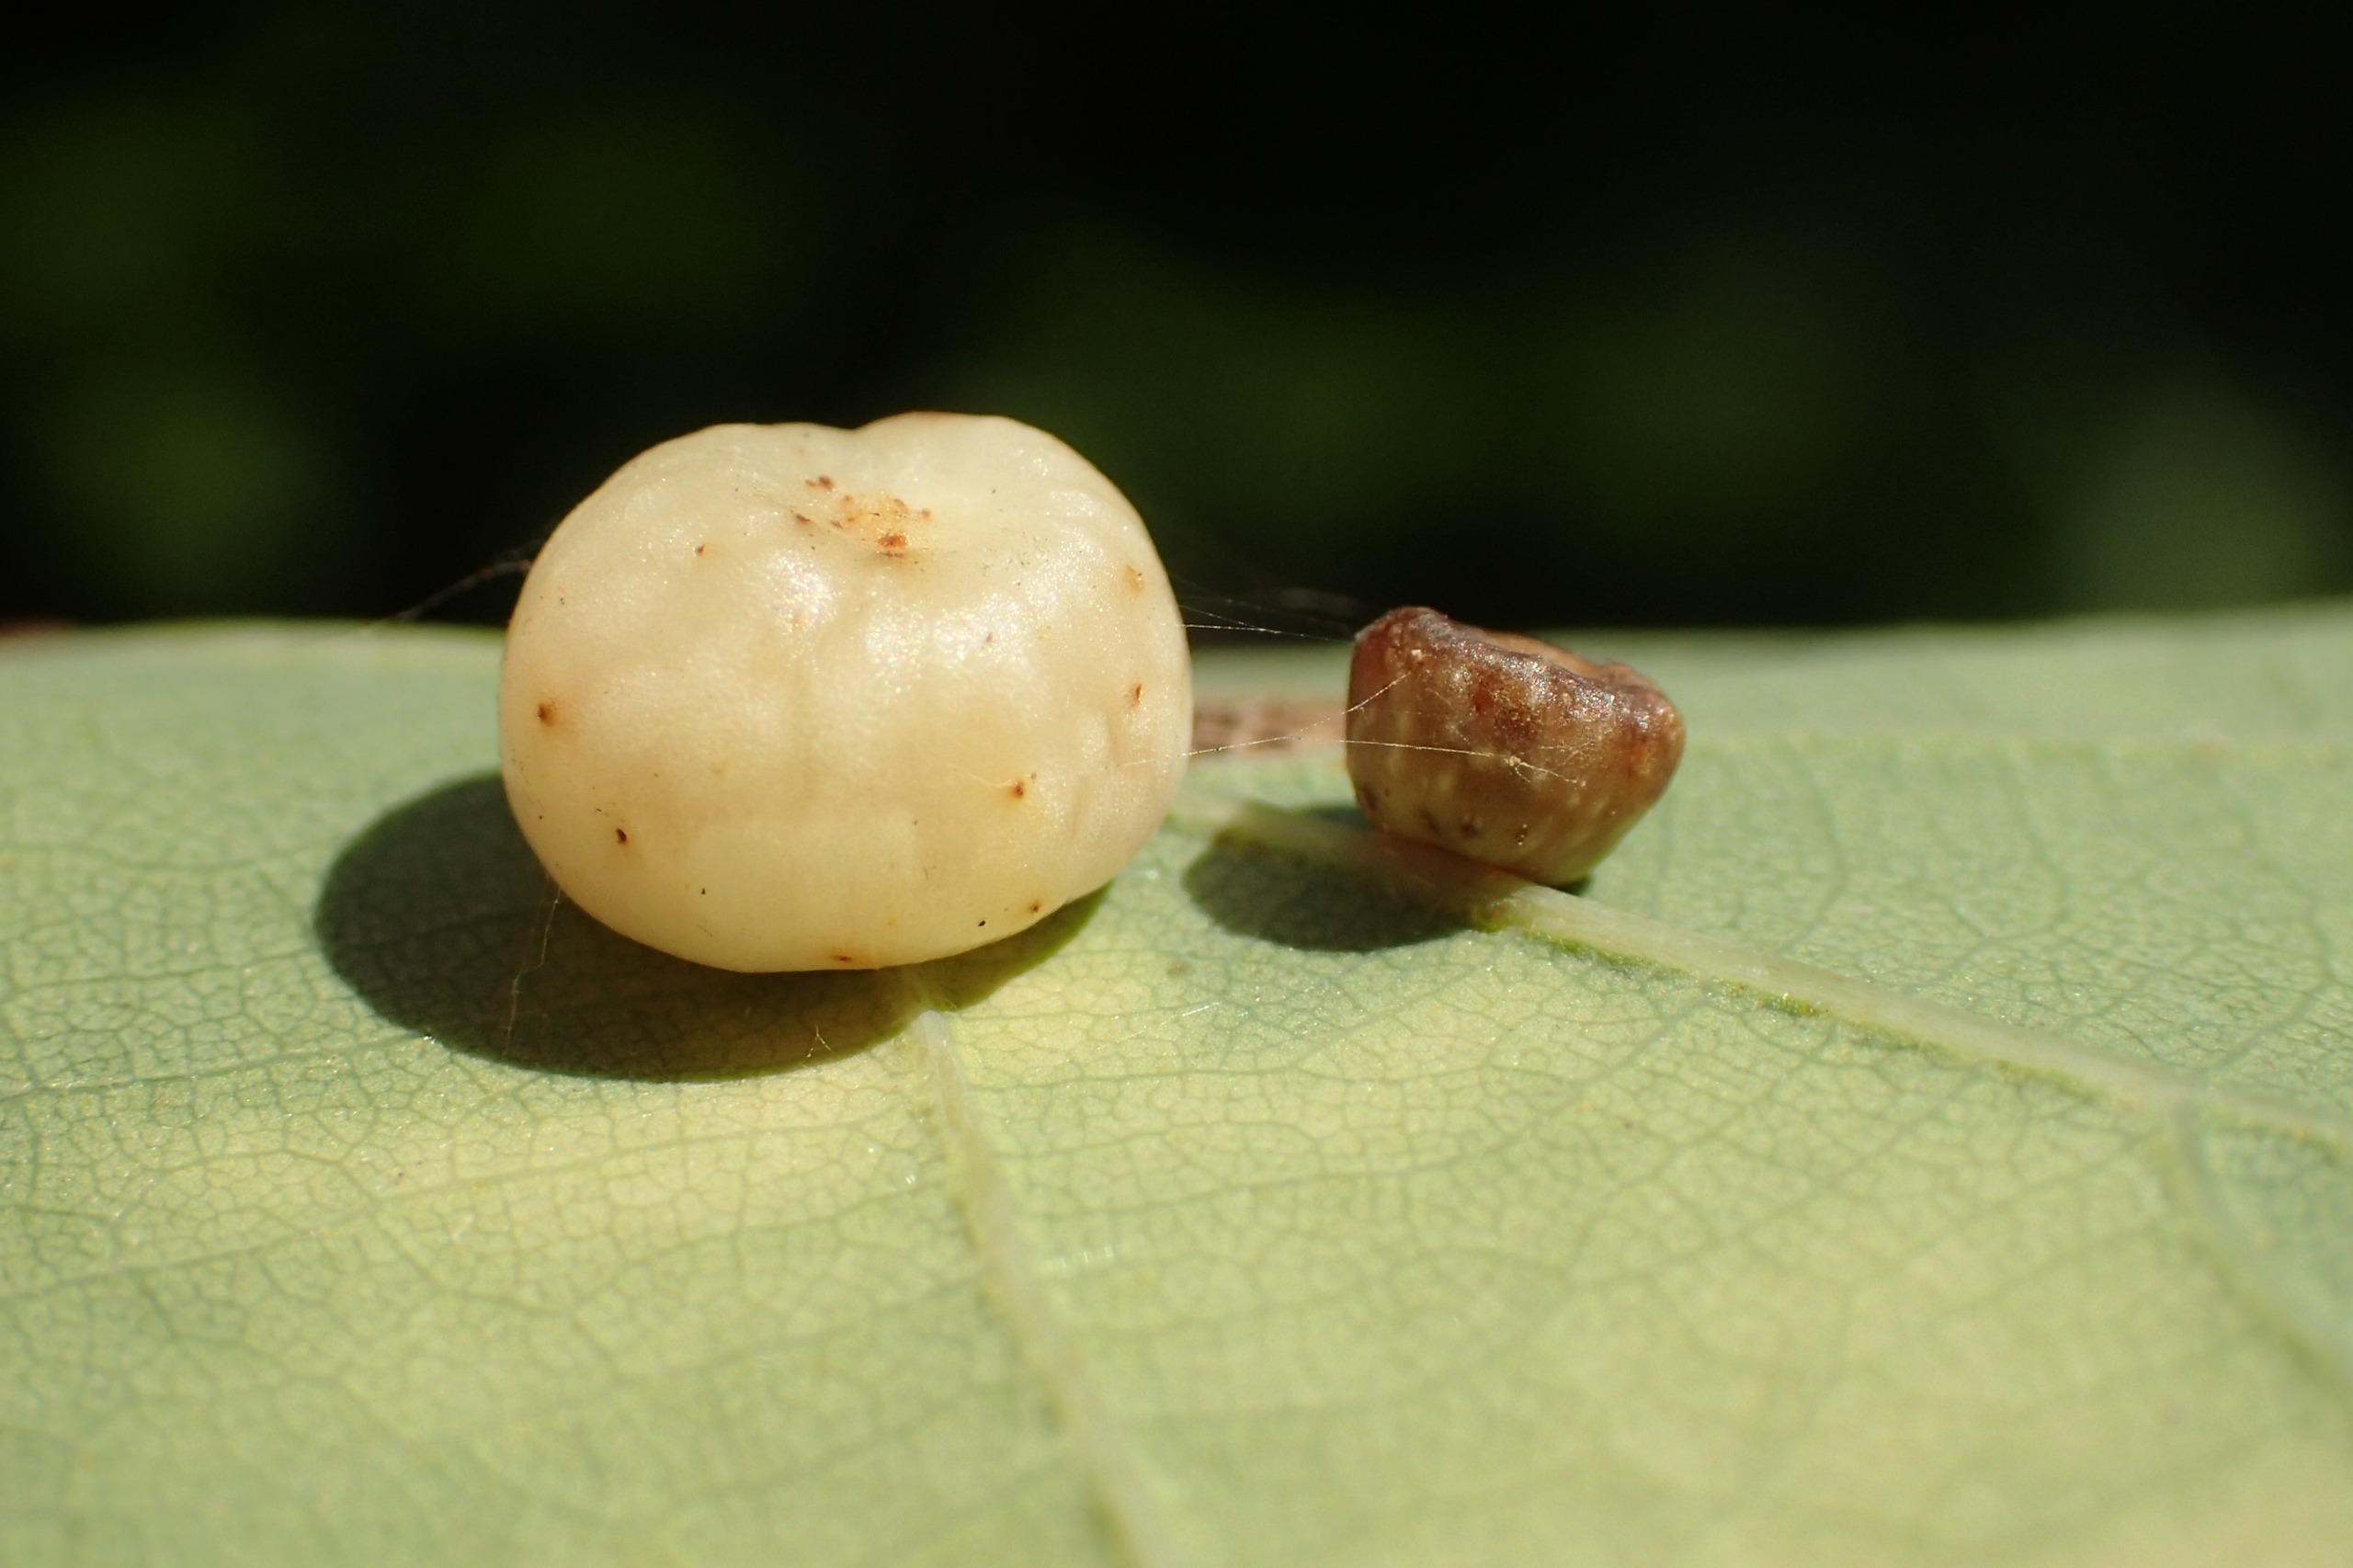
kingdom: Animalia
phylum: Arthropoda
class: Insecta
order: Hymenoptera
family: Cynipidae
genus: Cynips
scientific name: Cynips divisa
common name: Lille galæblehveps
